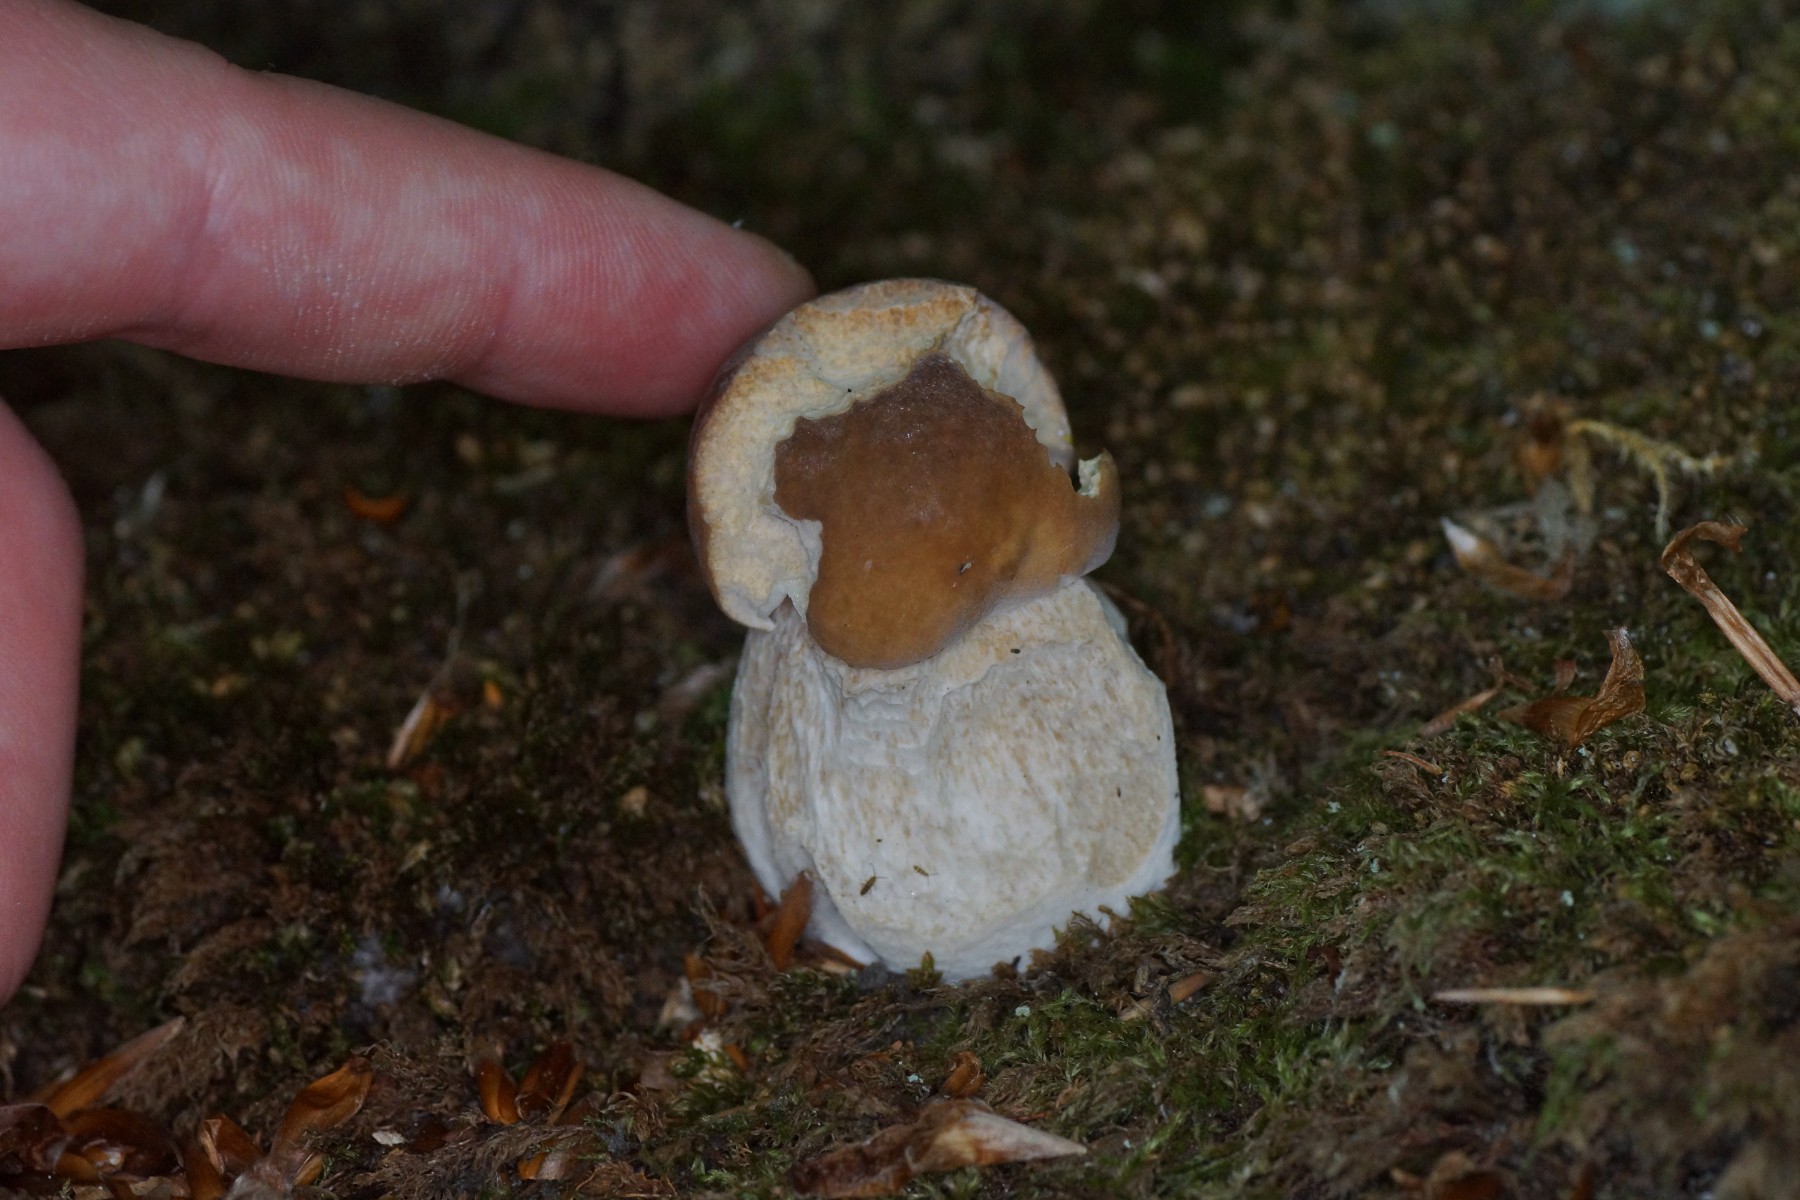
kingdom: Fungi
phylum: Basidiomycota
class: Agaricomycetes
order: Boletales
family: Boletaceae
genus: Boletus
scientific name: Boletus edulis
